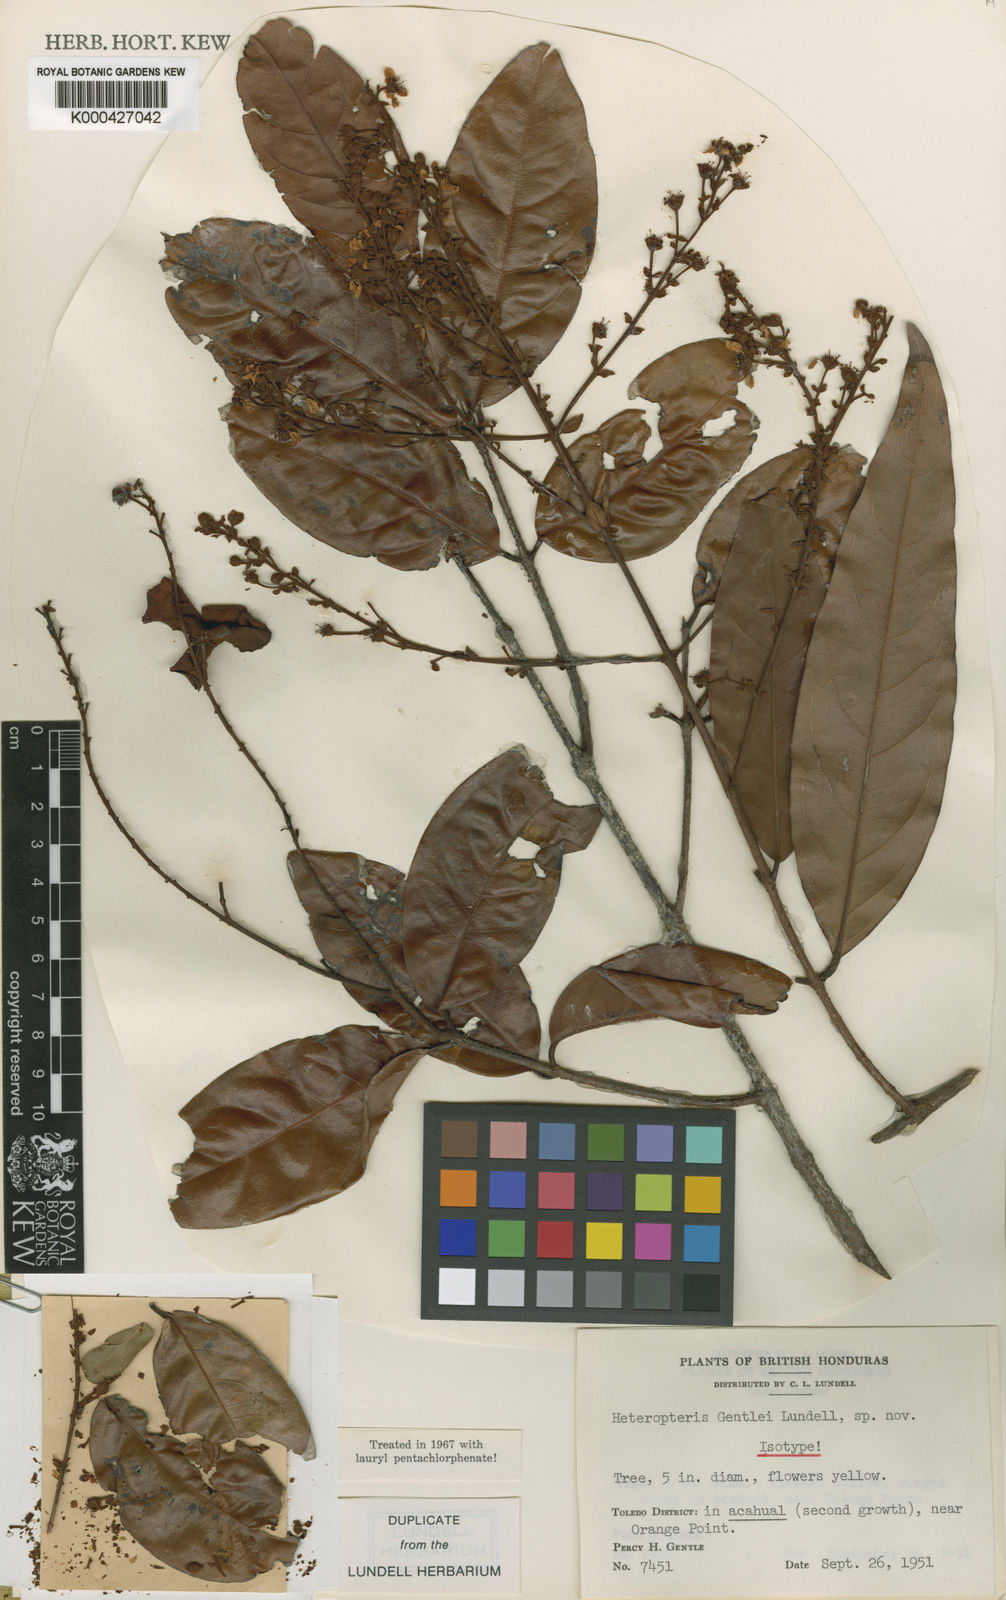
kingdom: Plantae
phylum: Tracheophyta
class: Magnoliopsida
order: Malpighiales
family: Malpighiaceae
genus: Heteropterys
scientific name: Heteropterys gentlei
